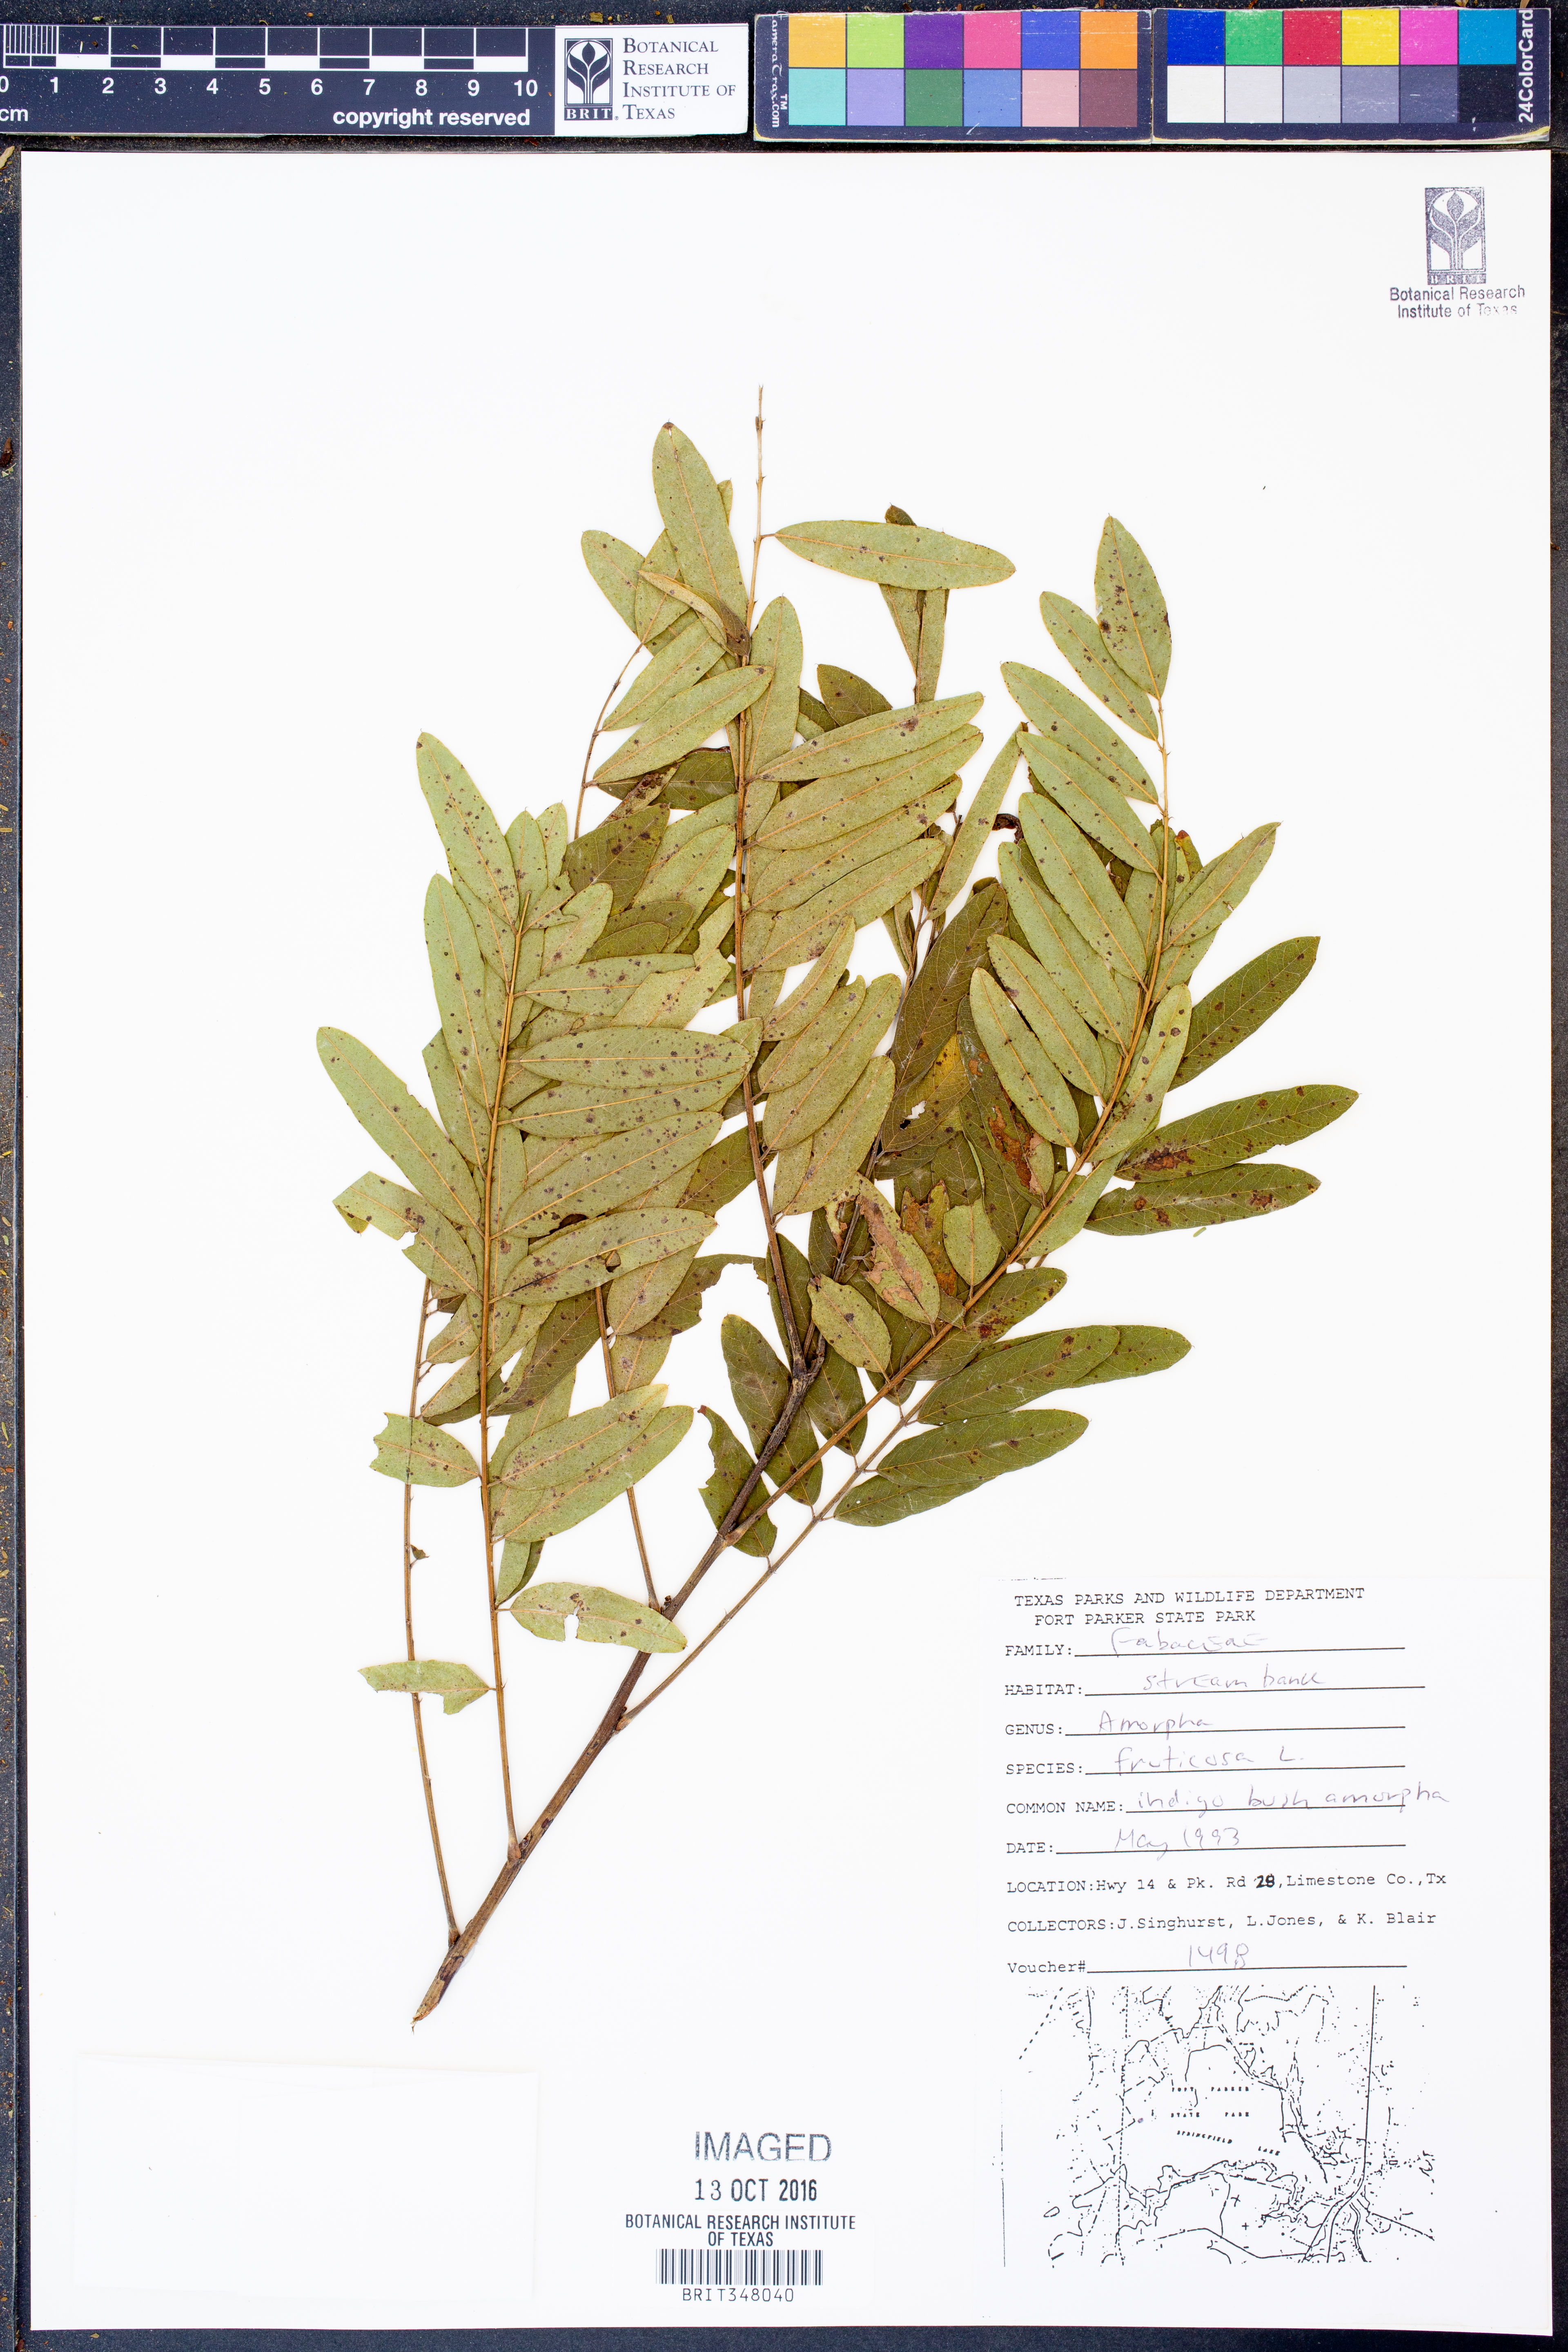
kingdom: Plantae
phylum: Tracheophyta
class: Magnoliopsida
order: Fabales
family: Fabaceae
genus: Amorpha
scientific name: Amorpha fruticosa
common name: False indigo
